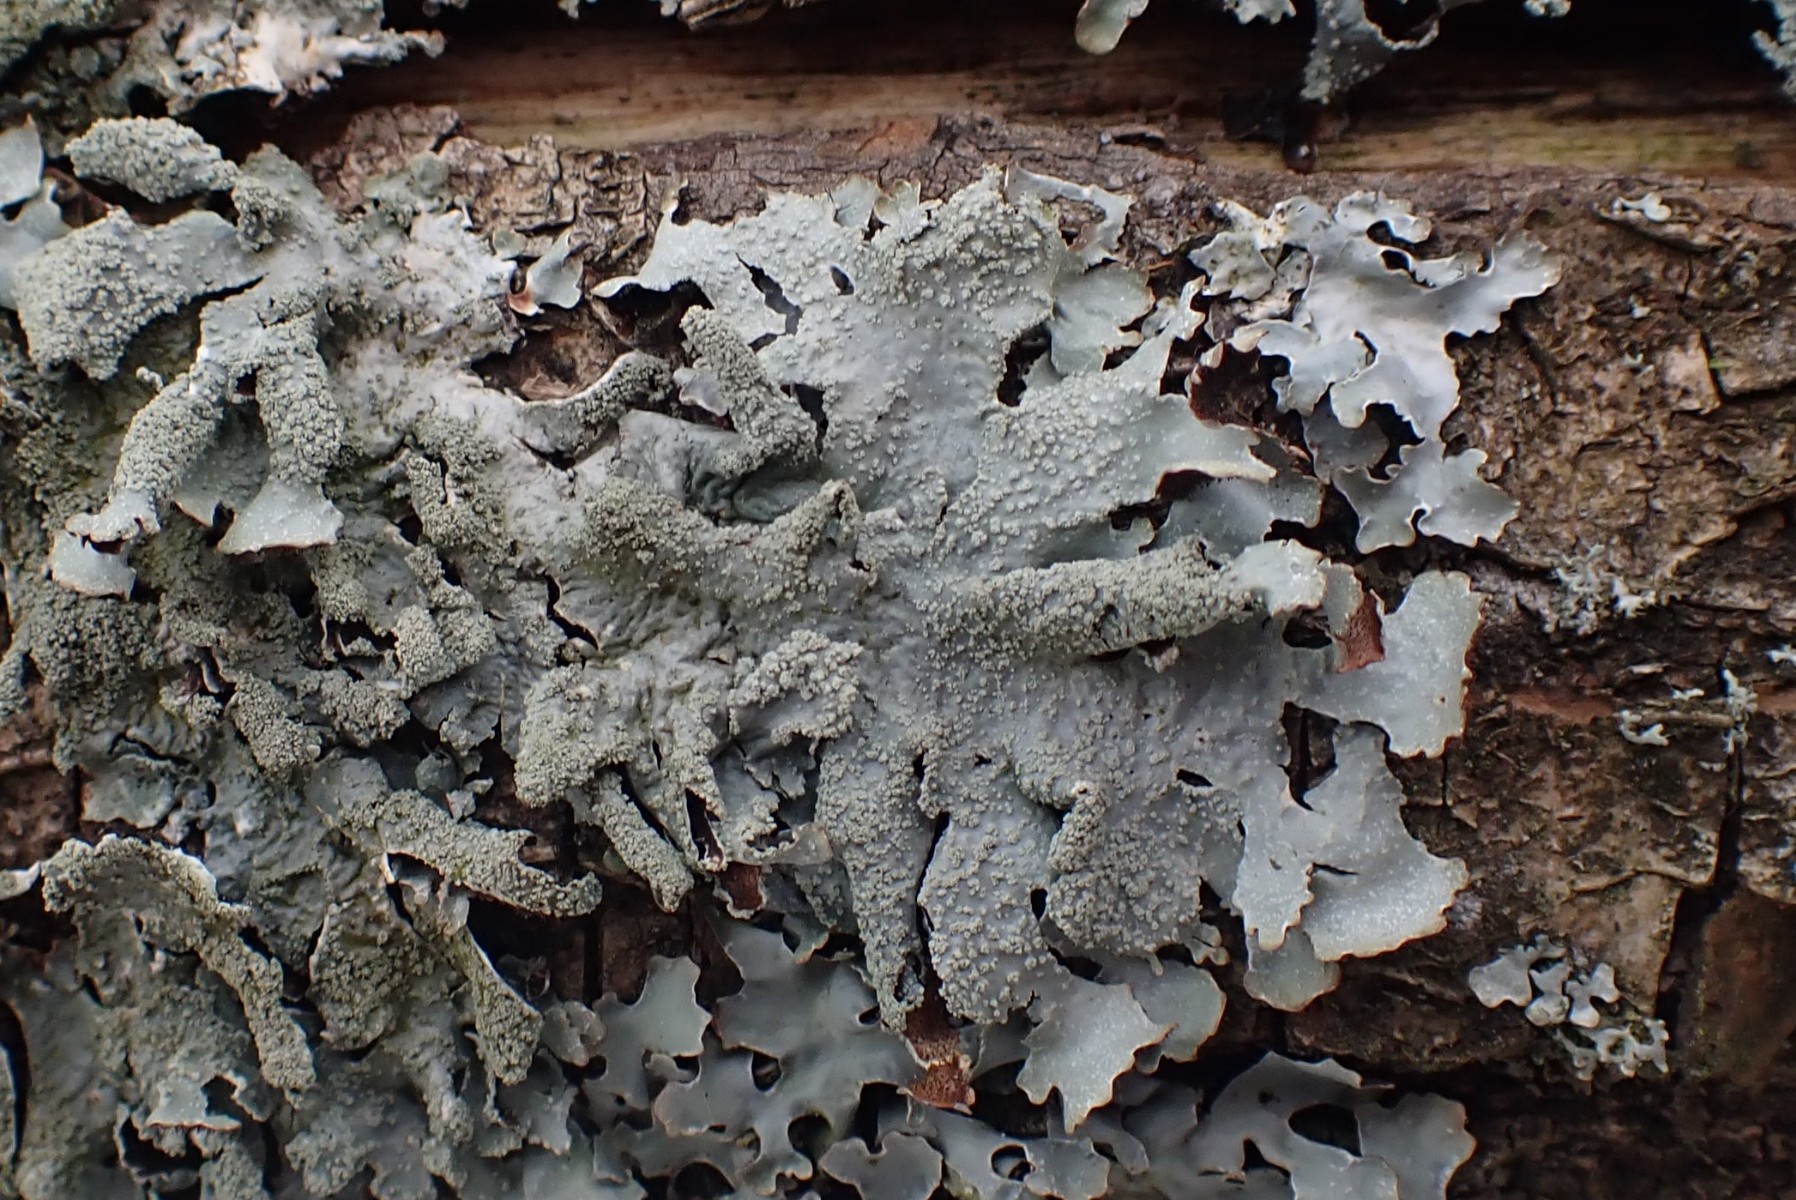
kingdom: Fungi
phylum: Ascomycota
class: Lecanoromycetes
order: Lecanorales
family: Parmeliaceae
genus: Parmelia
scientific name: Parmelia submontana
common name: langlobet skållav
